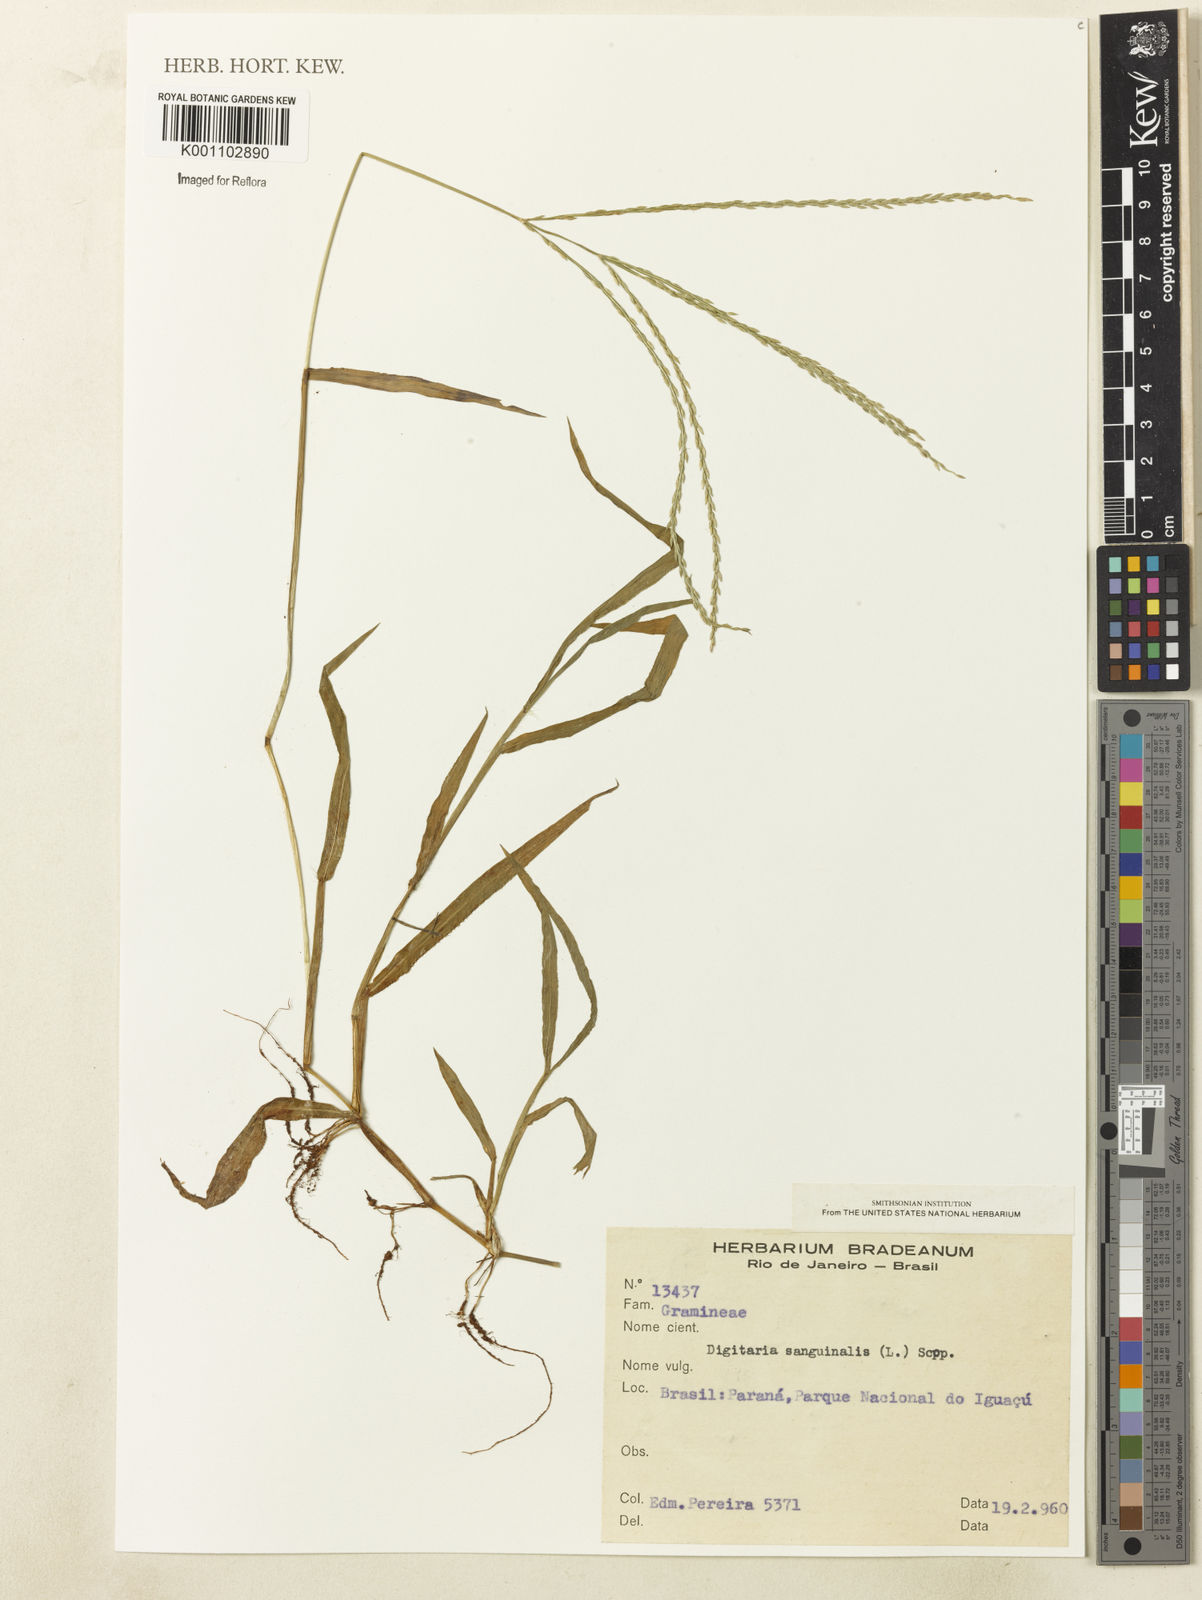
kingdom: Plantae
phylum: Tracheophyta
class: Liliopsida
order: Poales
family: Poaceae
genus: Digitaria
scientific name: Digitaria sanguinalis
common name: Hairy crabgrass
